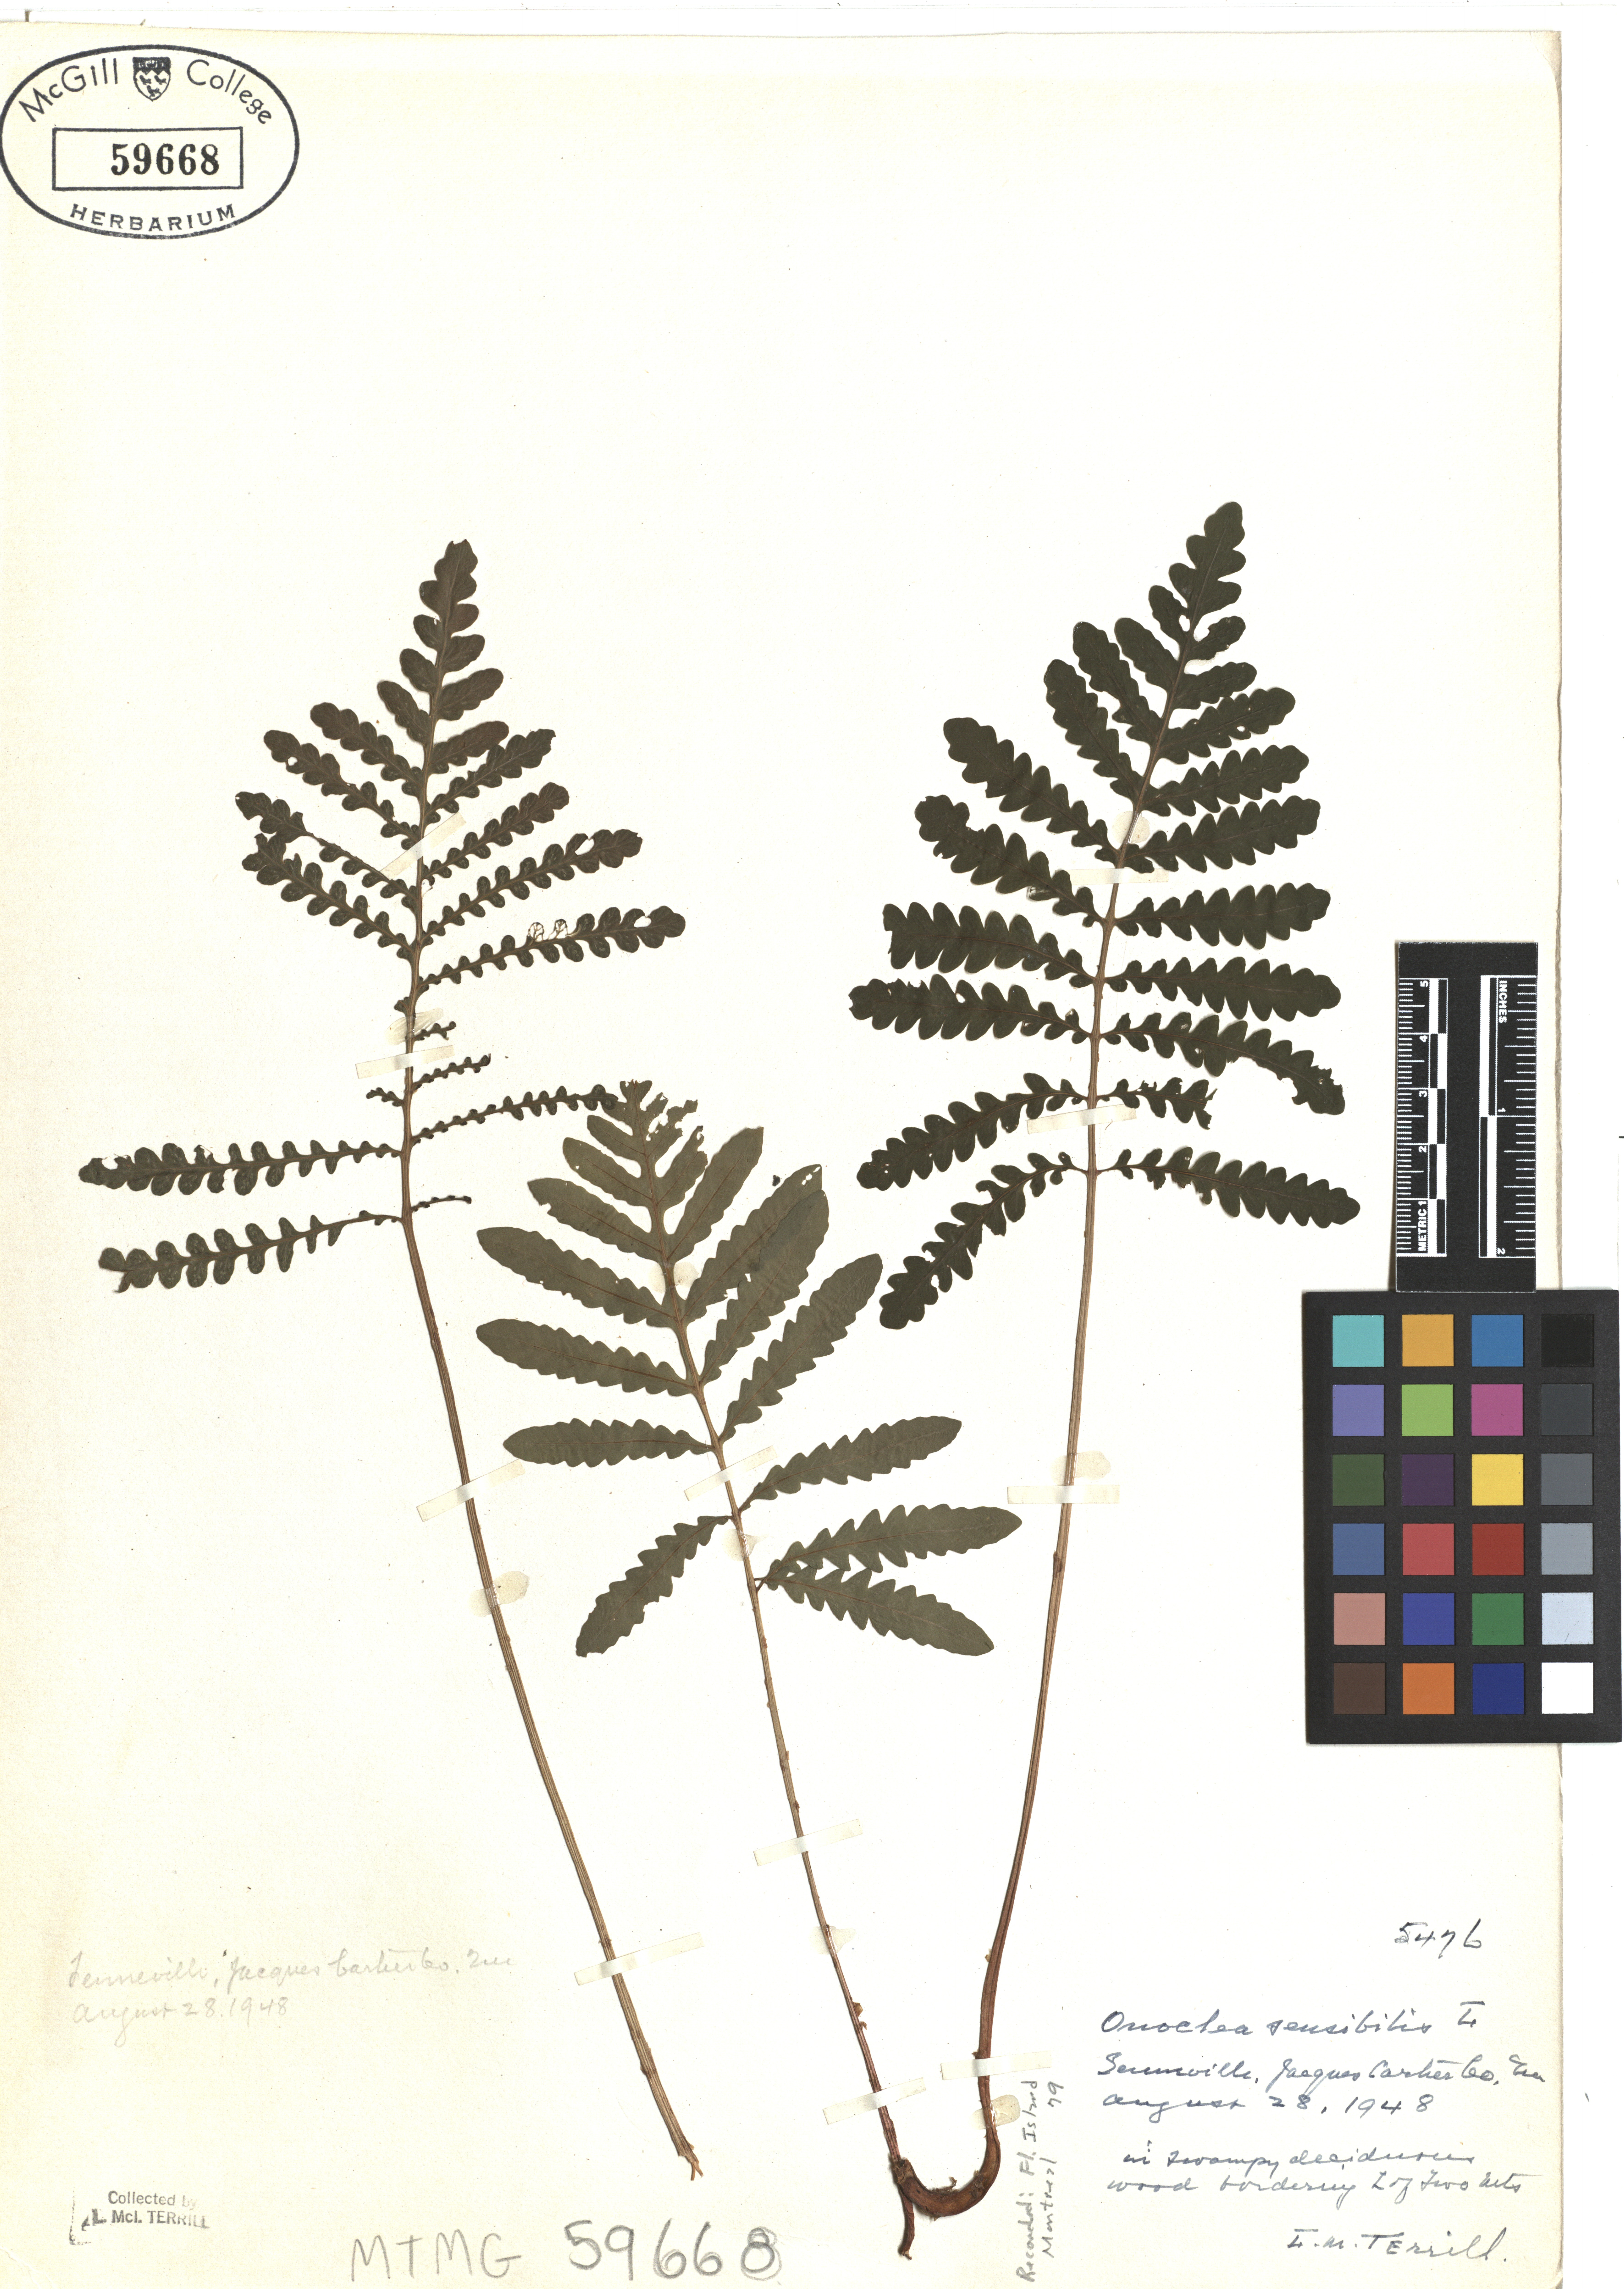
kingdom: Plantae
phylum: Tracheophyta
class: Polypodiopsida
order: Polypodiales
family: Onocleaceae
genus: Onoclea
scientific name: Onoclea sensibilis
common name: Sensitive fern
